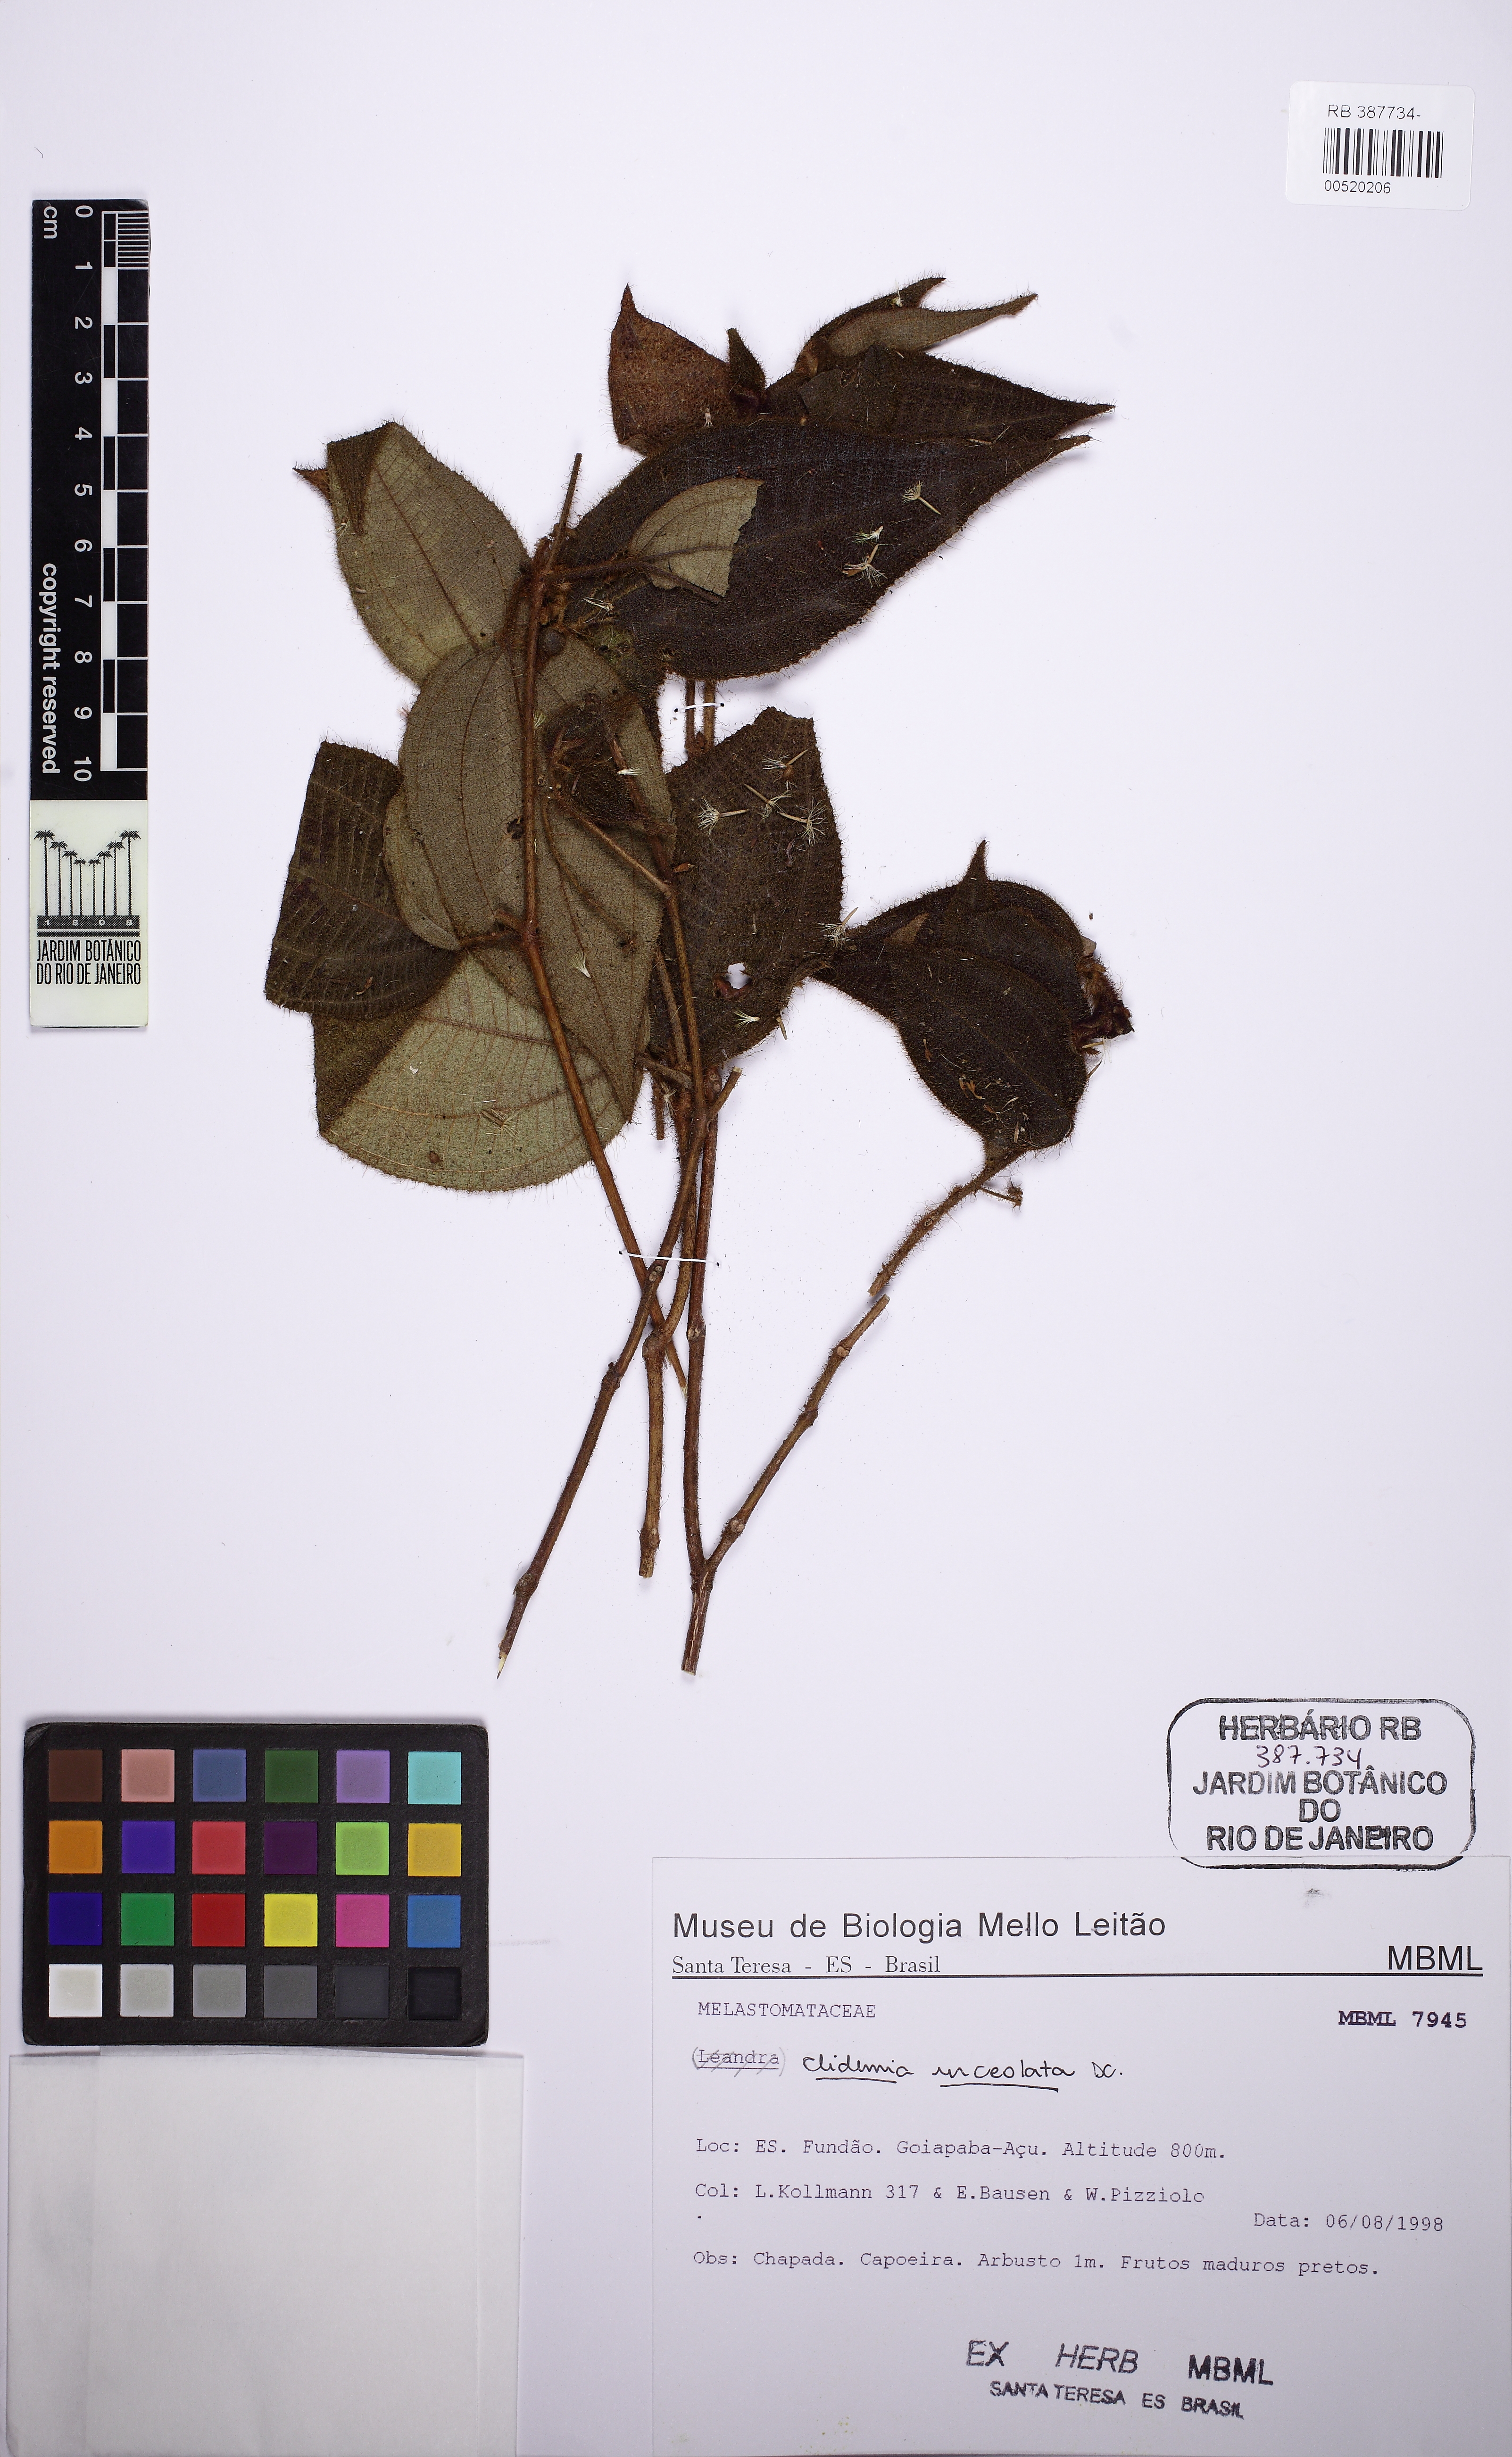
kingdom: Plantae
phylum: Tracheophyta
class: Magnoliopsida
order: Myrtales
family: Melastomataceae
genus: Miconia
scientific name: Miconia neourceolata
